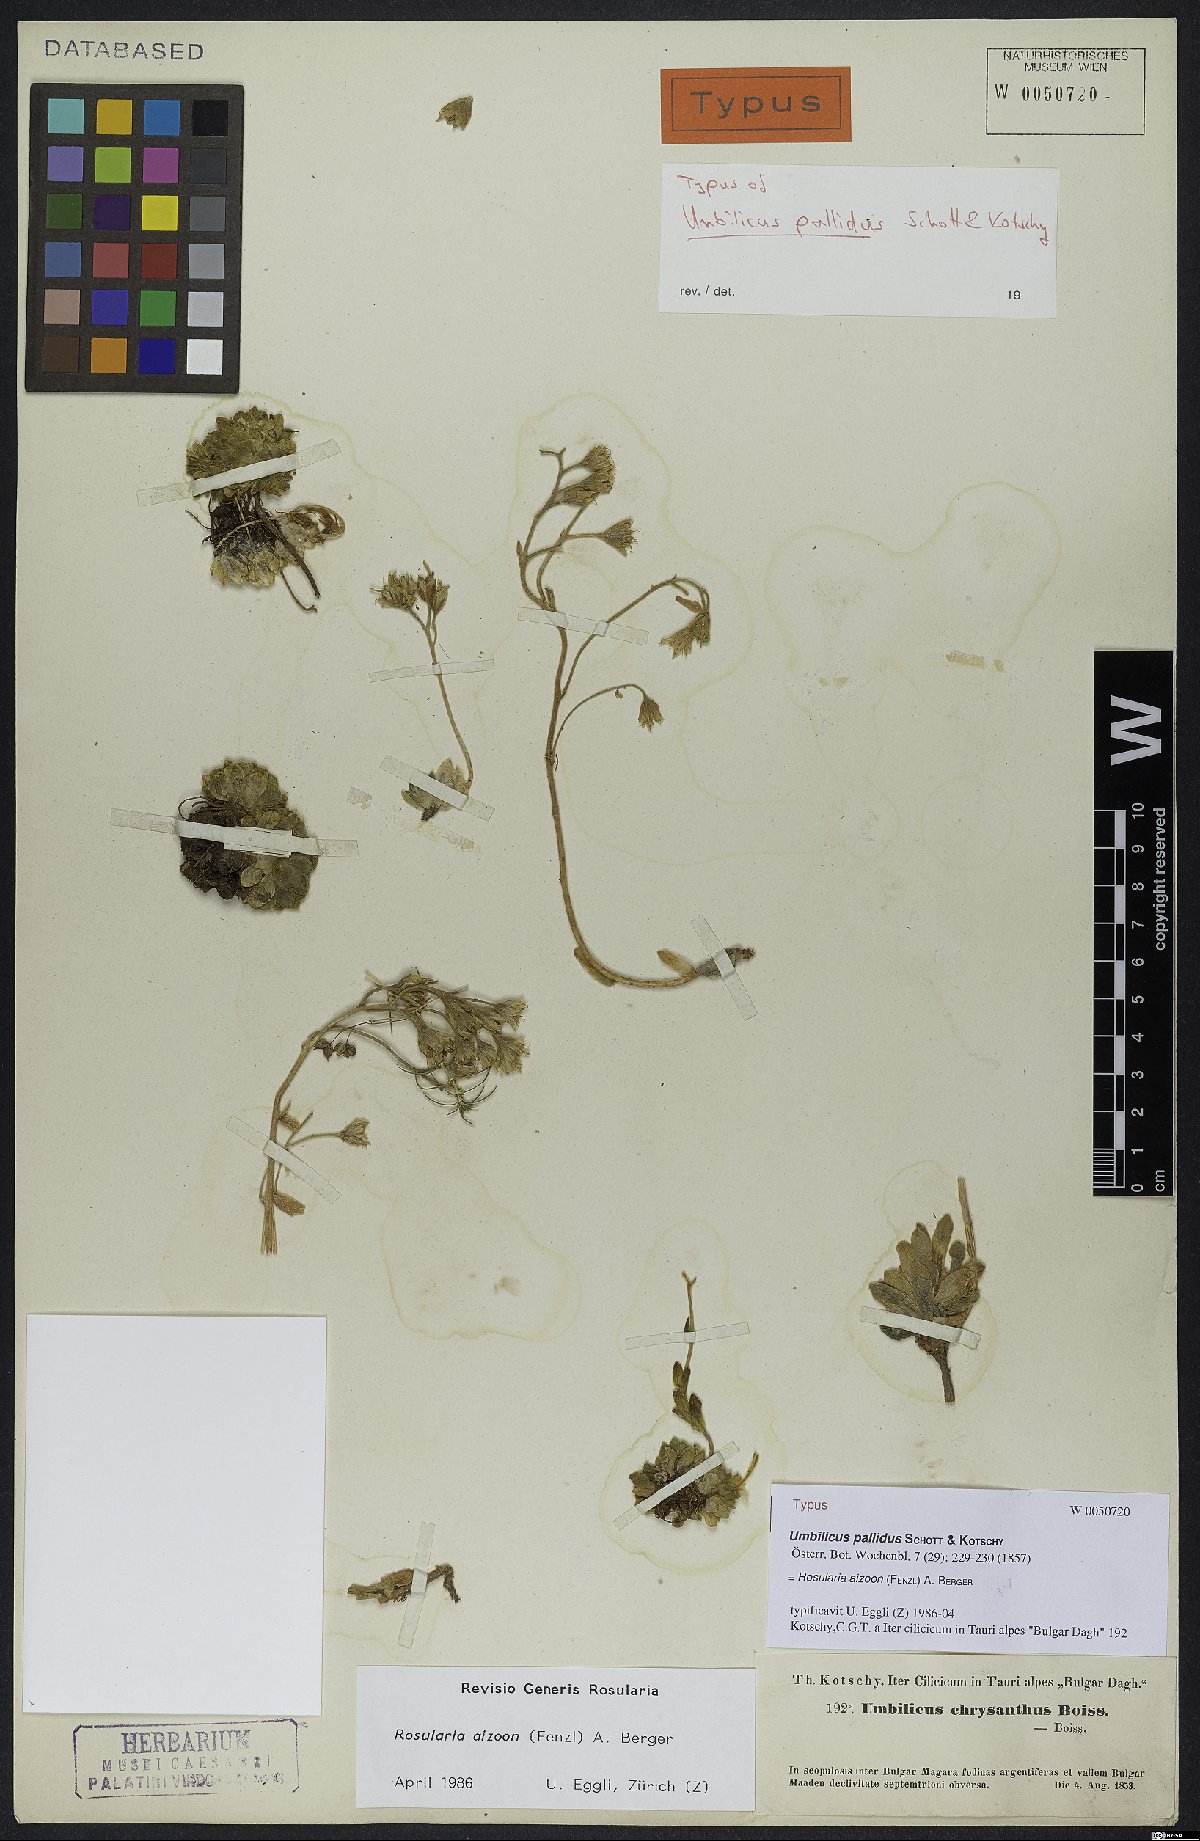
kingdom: Plantae
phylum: Tracheophyta
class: Magnoliopsida
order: Saxifragales
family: Crassulaceae
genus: Prometheum
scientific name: Prometheum aizoon
